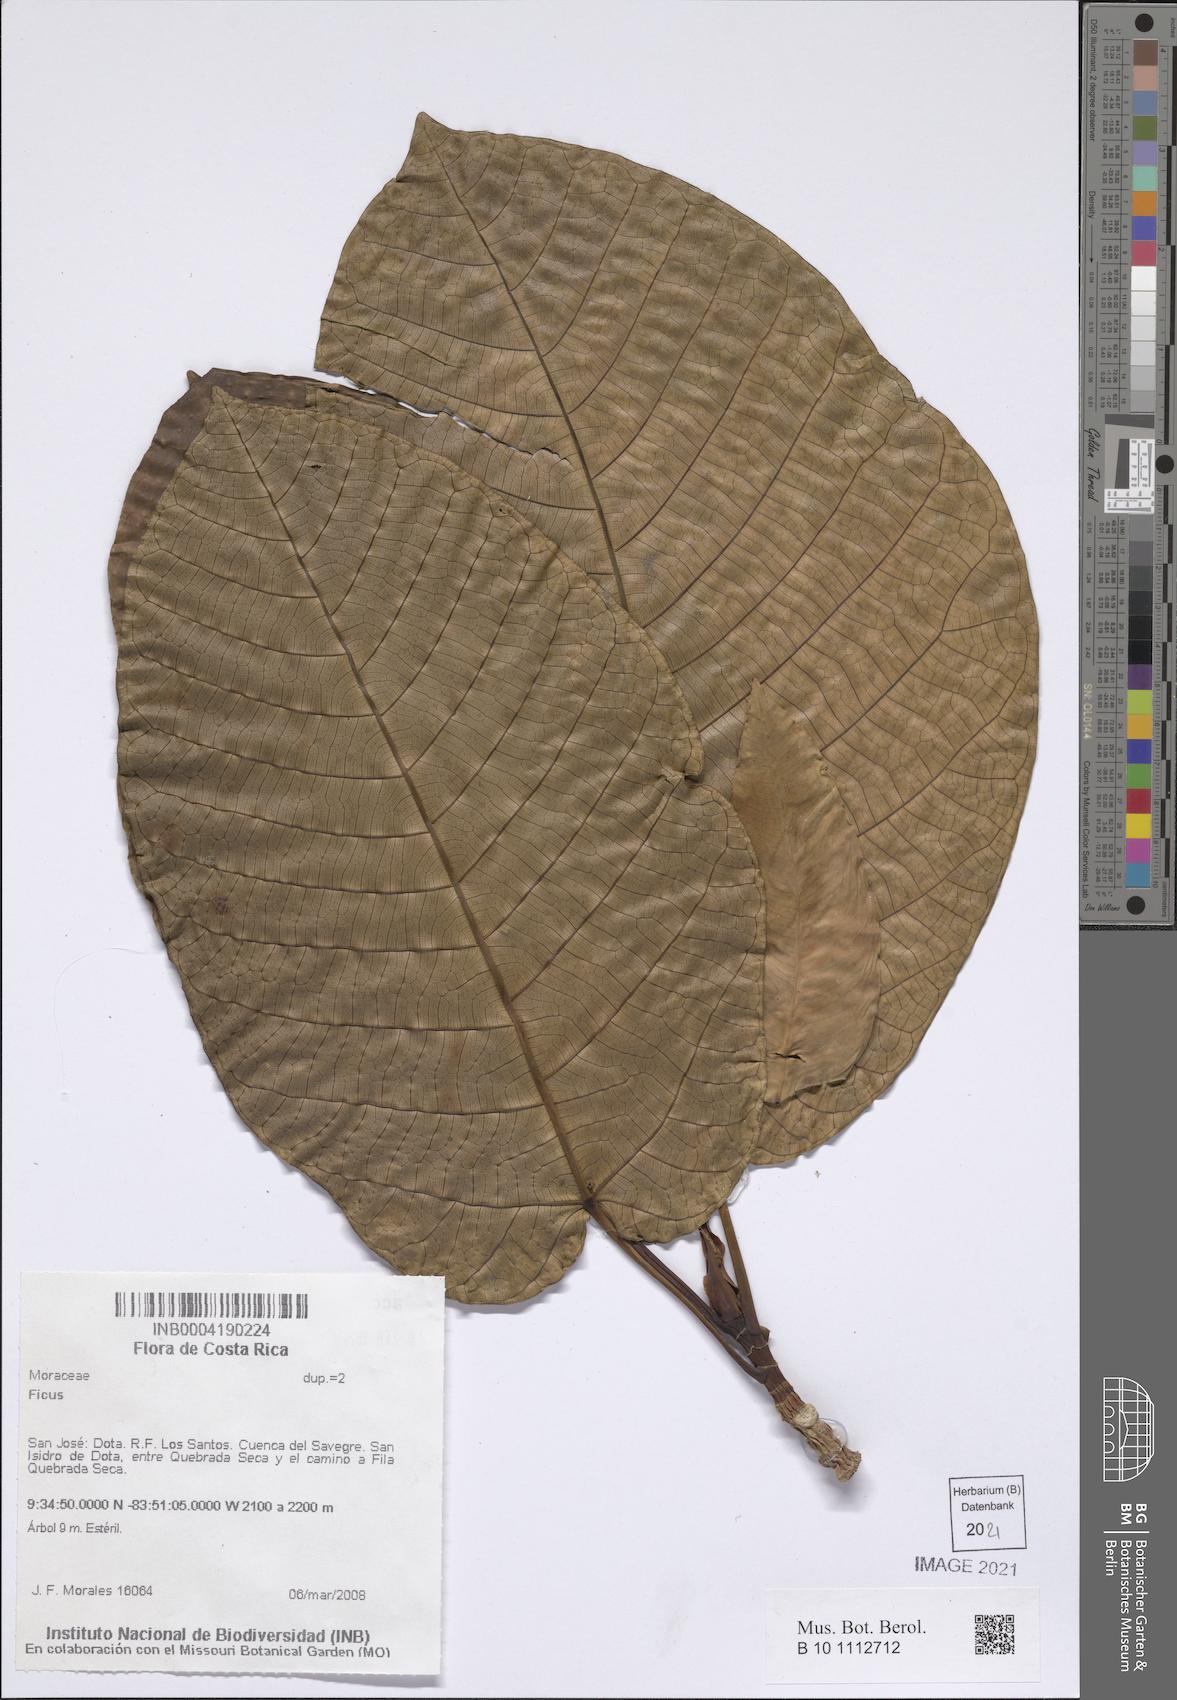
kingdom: Plantae
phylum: Tracheophyta
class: Magnoliopsida
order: Rosales
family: Moraceae
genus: Ficus
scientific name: Ficus
